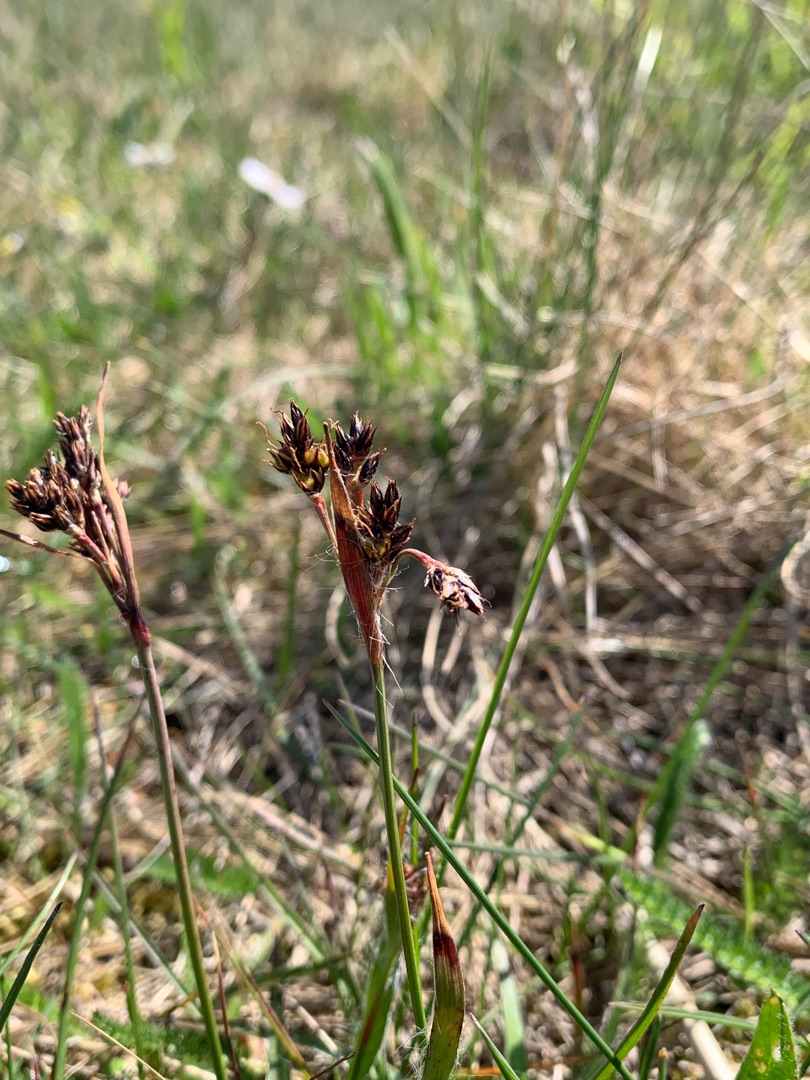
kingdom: Plantae
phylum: Tracheophyta
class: Liliopsida
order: Poales
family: Juncaceae
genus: Luzula
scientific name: Luzula campestris
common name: Mark-frytle
